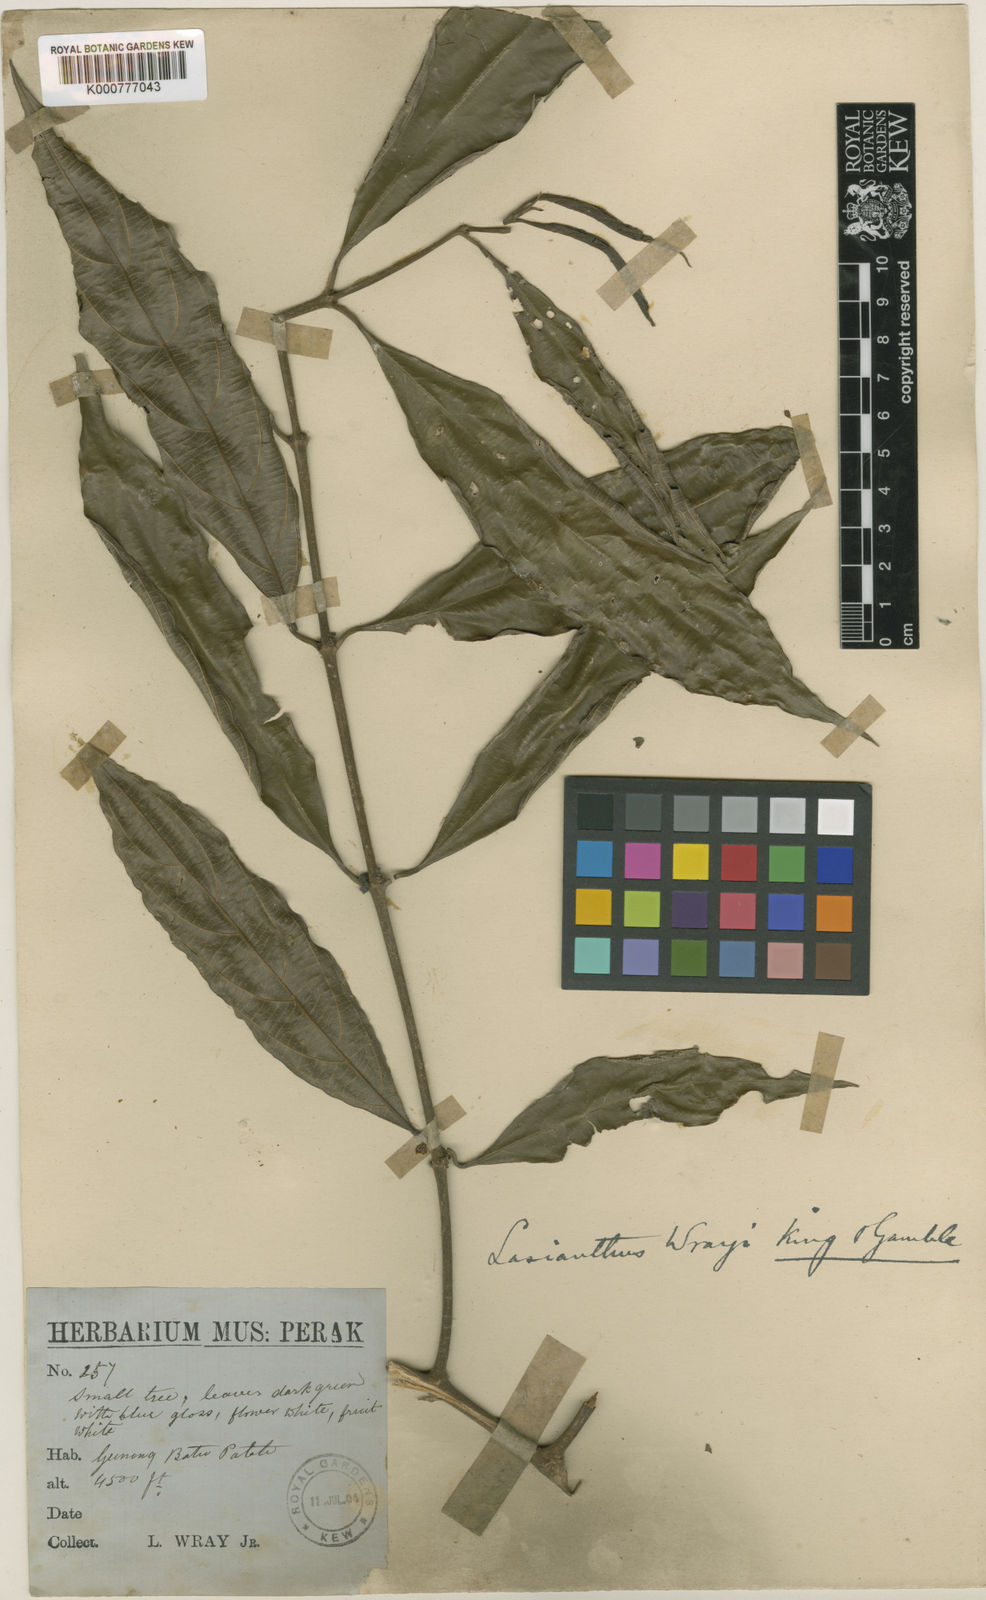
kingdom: Plantae
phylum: Tracheophyta
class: Magnoliopsida
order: Gentianales
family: Rubiaceae
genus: Lasianthus
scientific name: Lasianthus verticillatus
